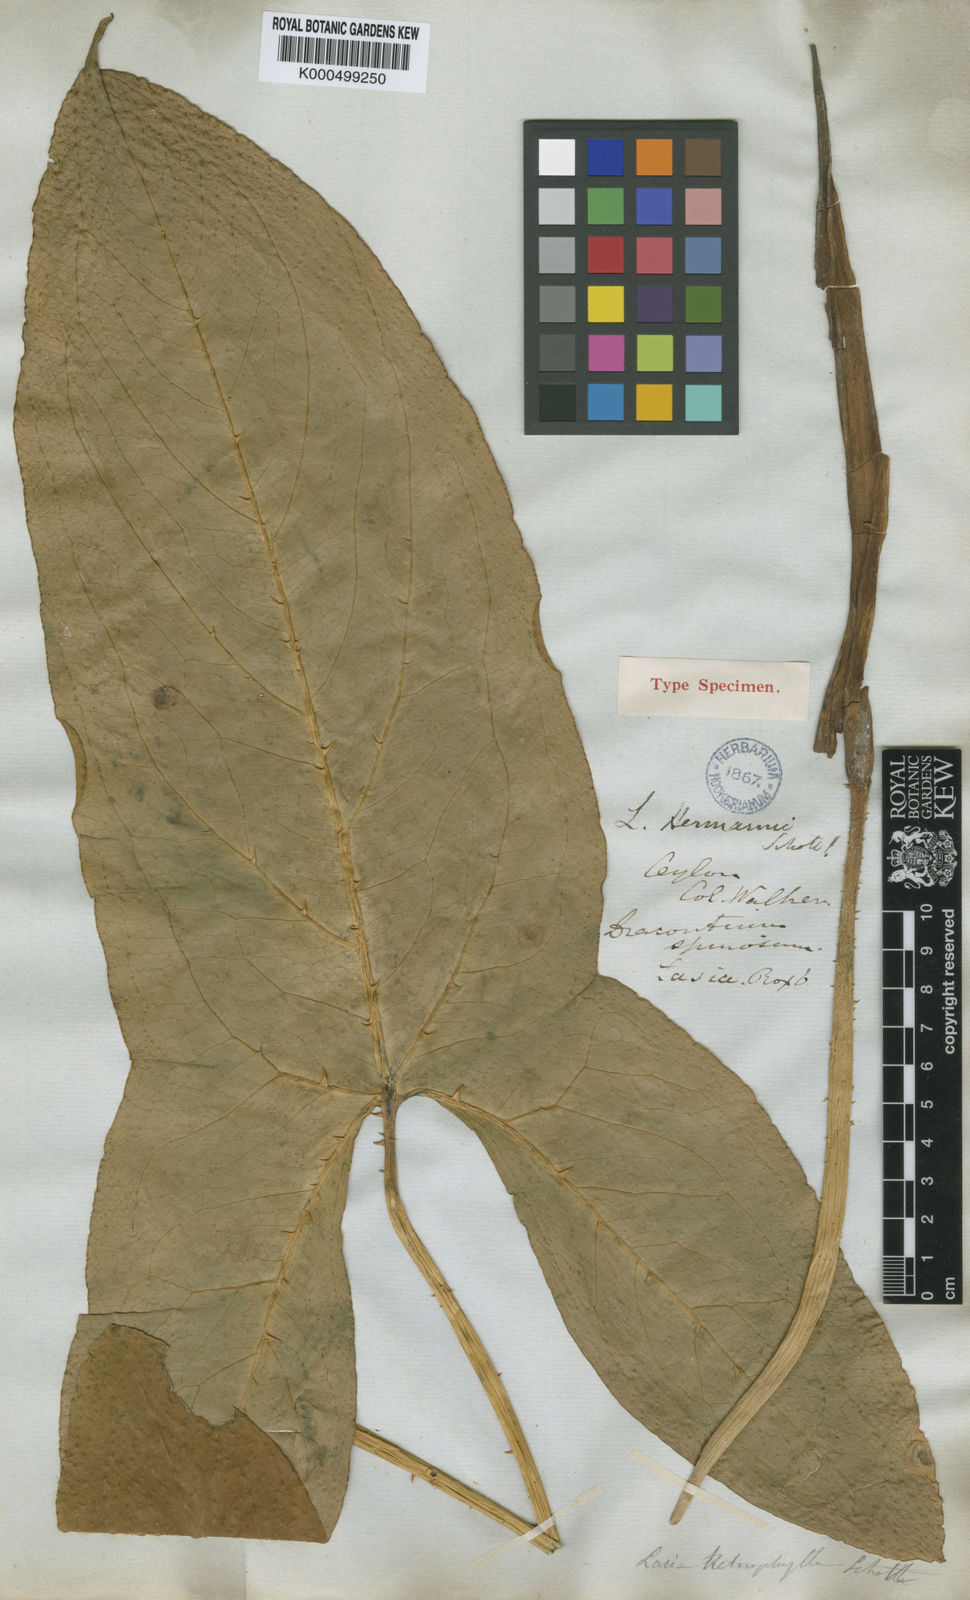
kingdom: Plantae
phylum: Tracheophyta
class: Liliopsida
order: Alismatales
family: Araceae
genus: Lasia
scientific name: Lasia spinosa
